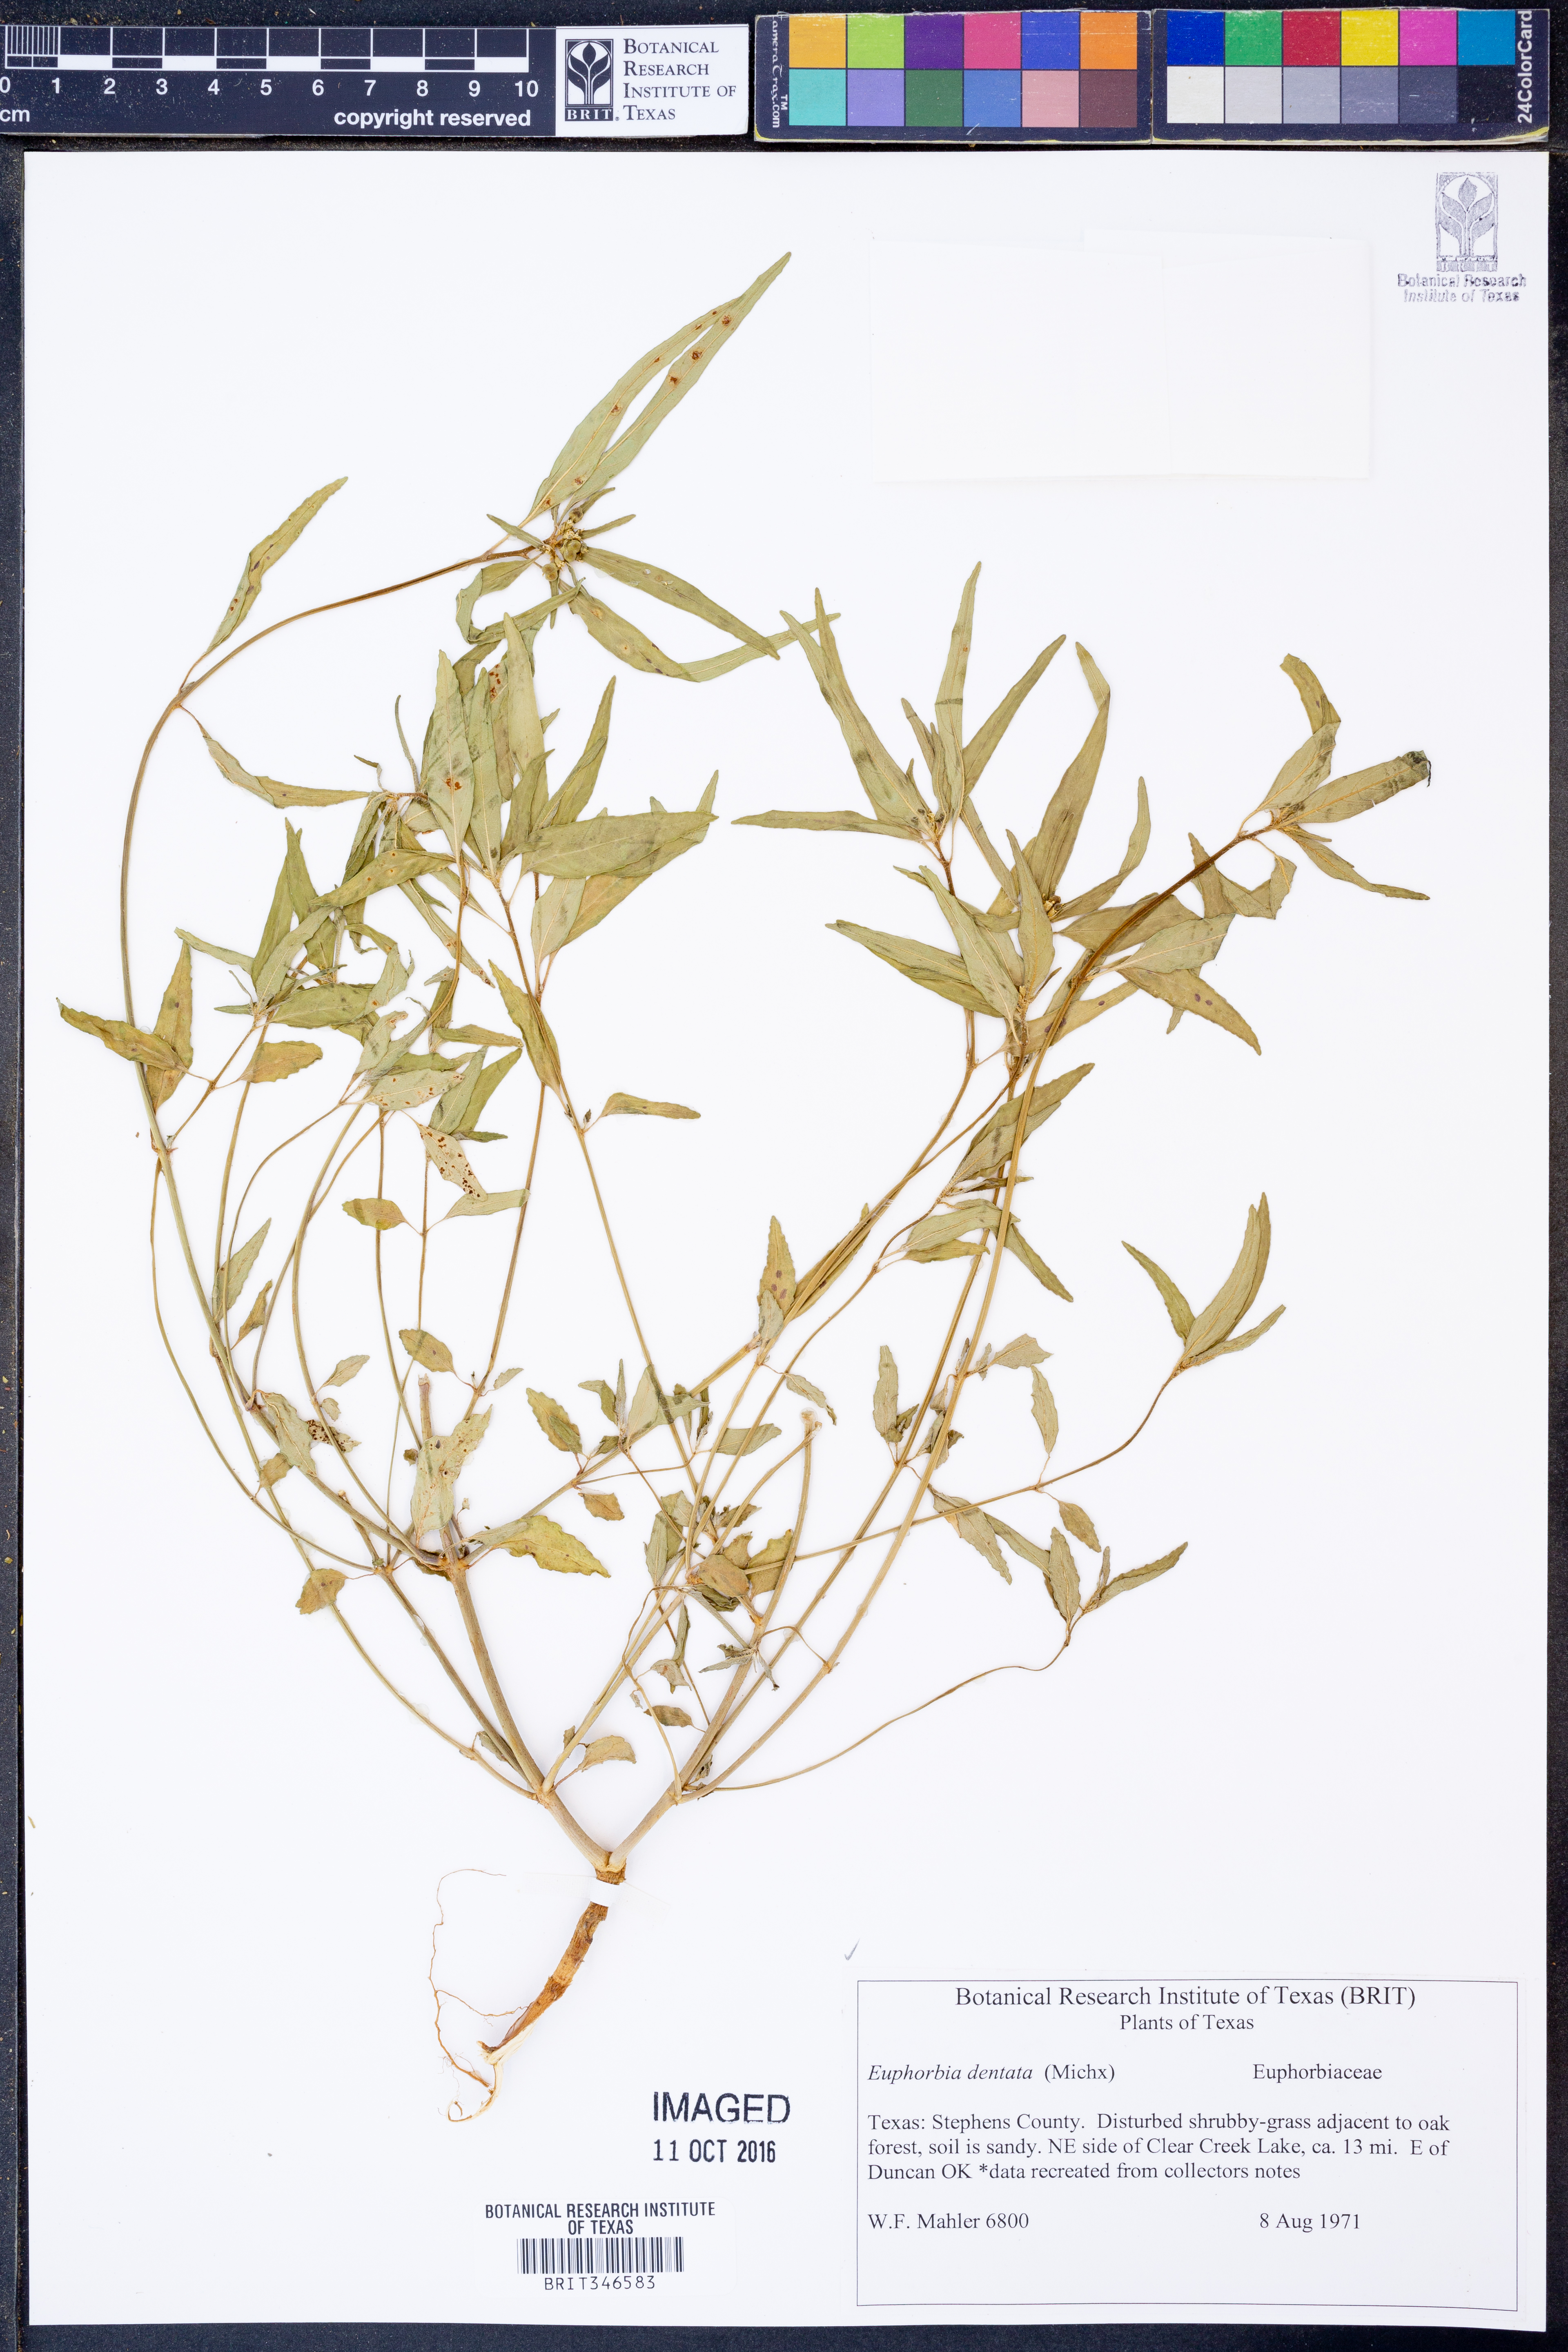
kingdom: Plantae
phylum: Tracheophyta
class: Magnoliopsida
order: Malpighiales
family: Euphorbiaceae
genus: Euphorbia
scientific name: Euphorbia dentata
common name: Dentate spurge
